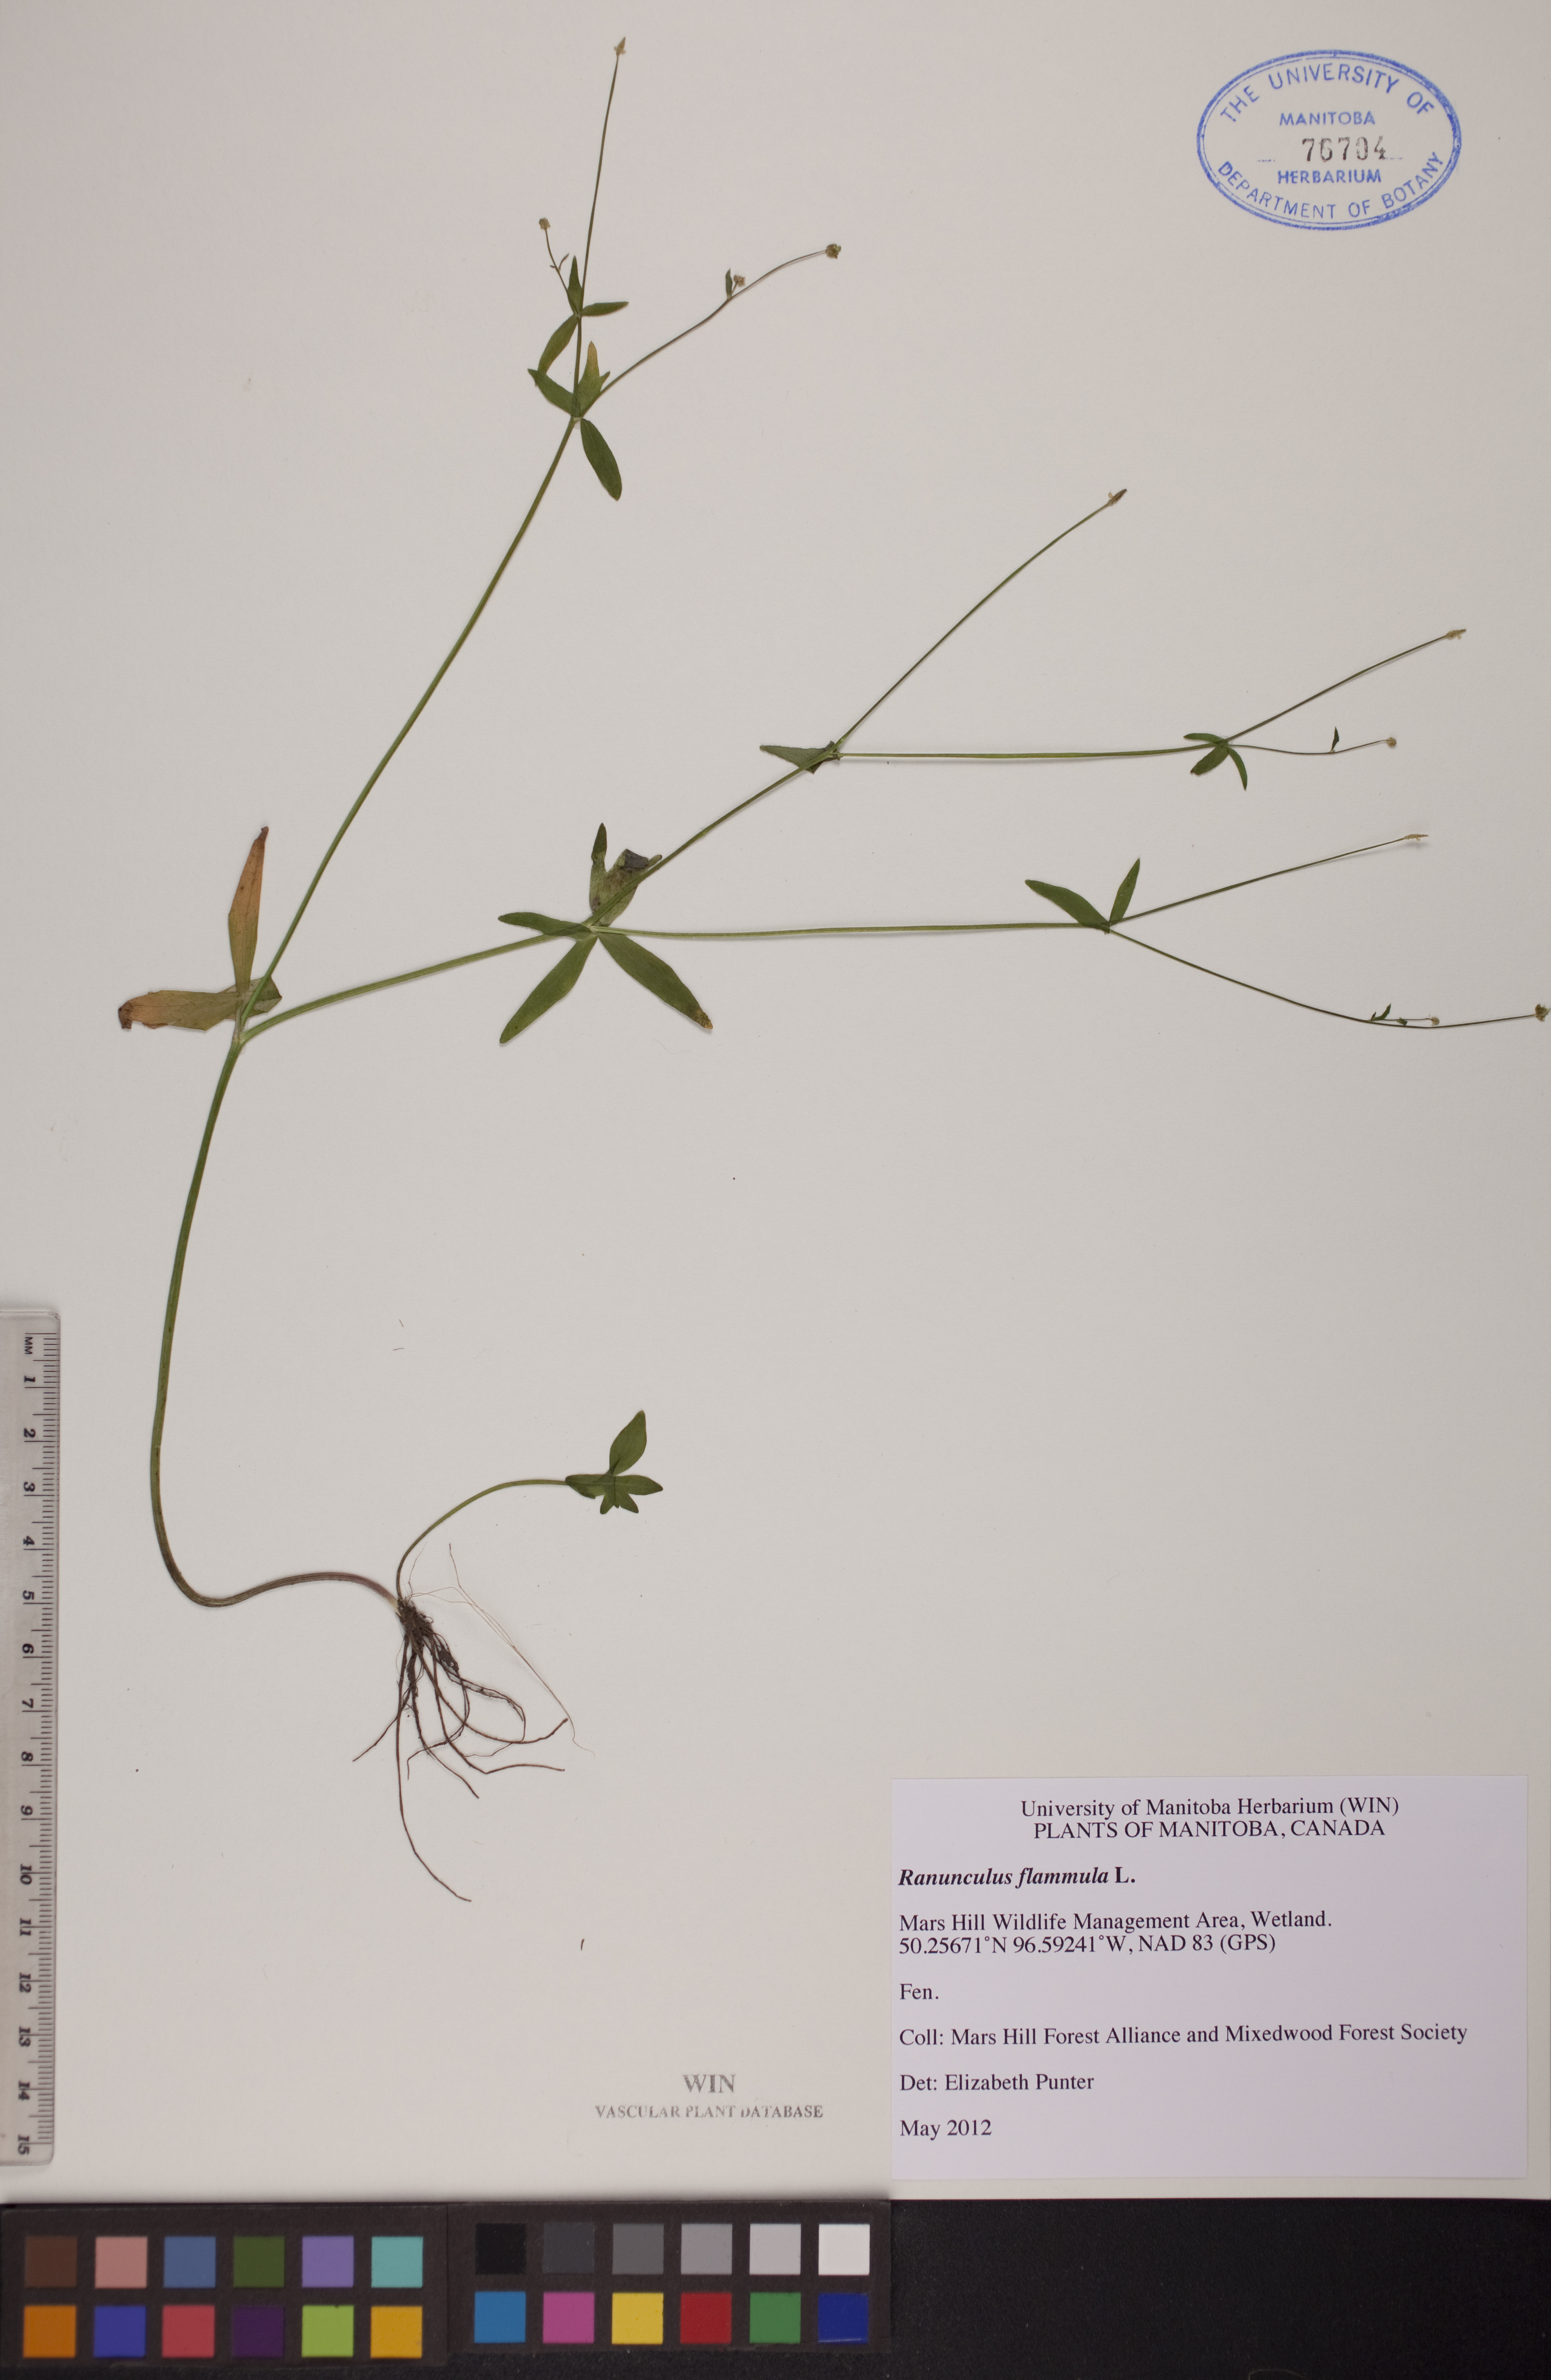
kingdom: Plantae
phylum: Tracheophyta
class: Magnoliopsida
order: Ranunculales
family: Ranunculaceae
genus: Ranunculus
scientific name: Ranunculus flammula
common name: Lesser spearwort
